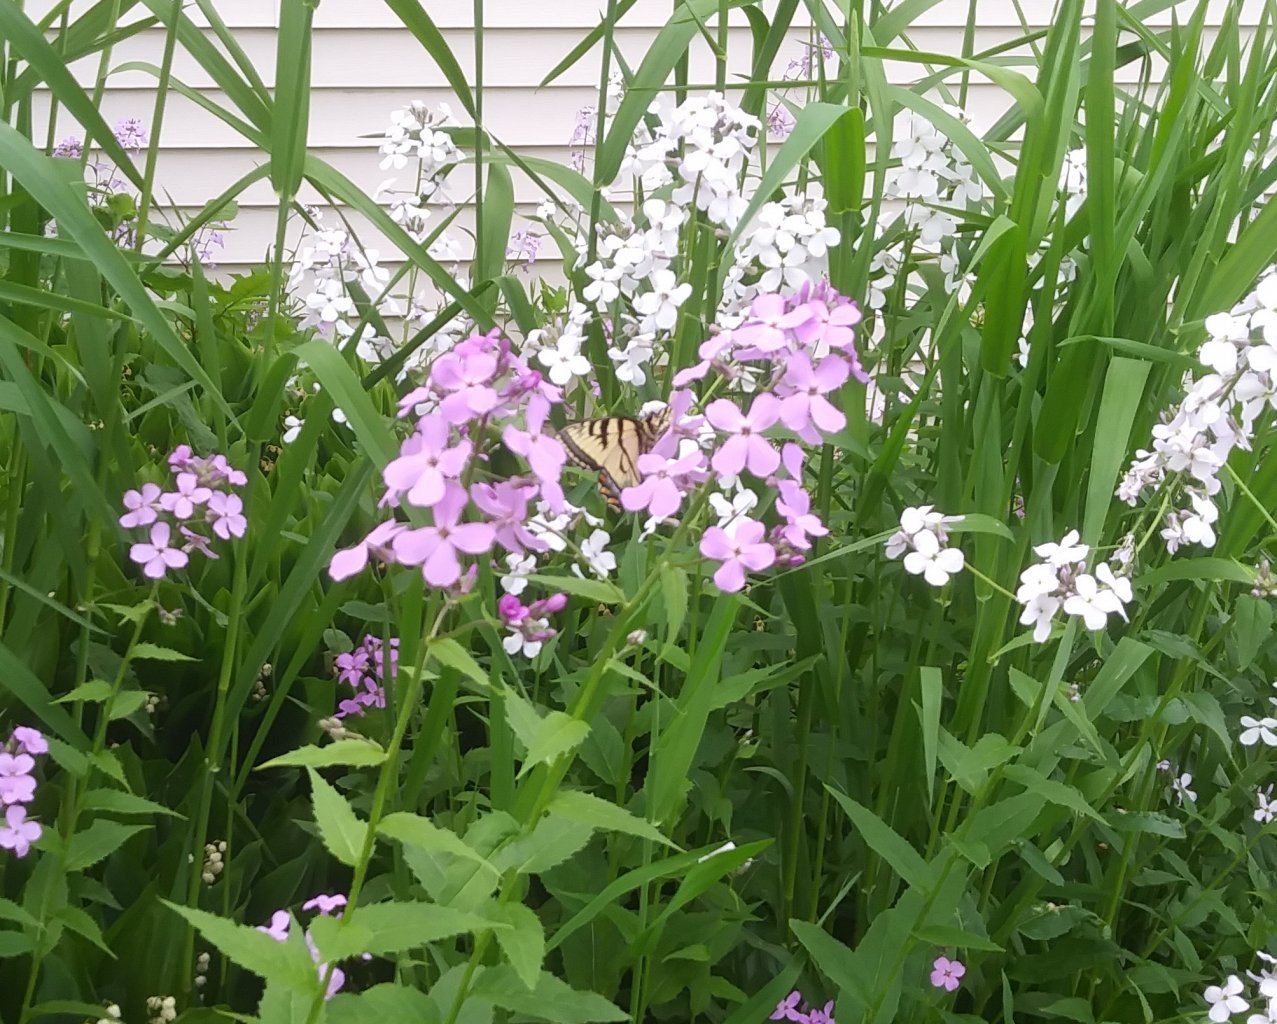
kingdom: Animalia
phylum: Arthropoda
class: Insecta
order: Lepidoptera
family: Papilionidae
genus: Pterourus
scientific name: Pterourus canadensis
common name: Canadian Tiger Swallowtail
